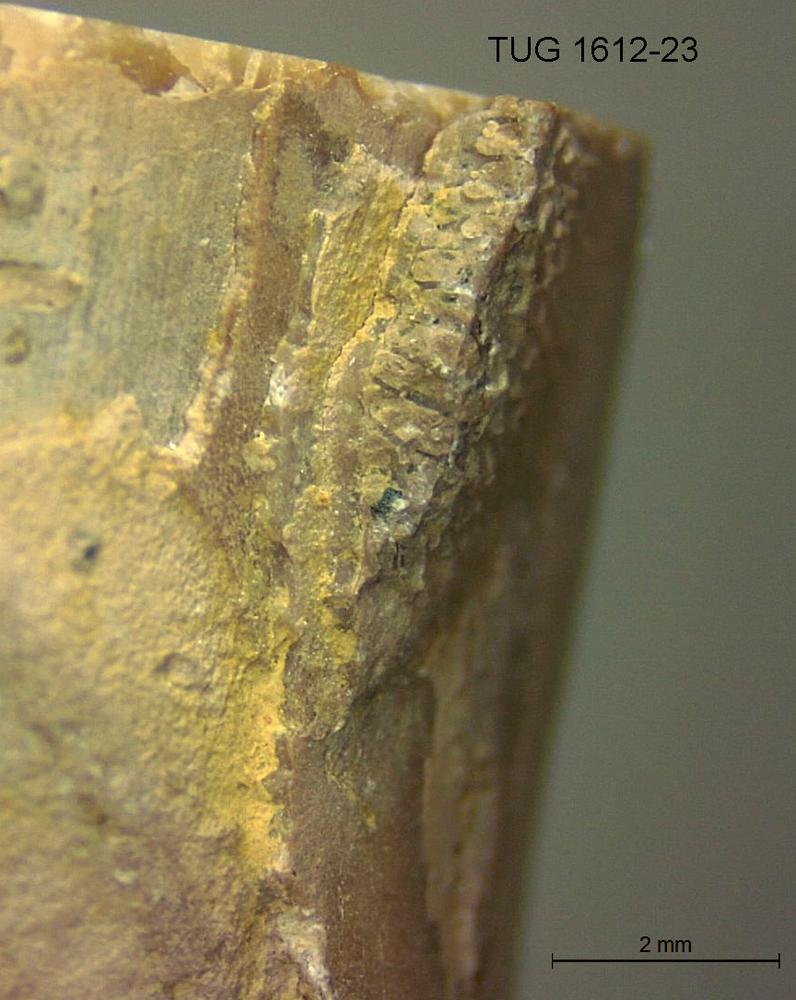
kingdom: Animalia
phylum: Bryozoa
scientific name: Bryozoa
